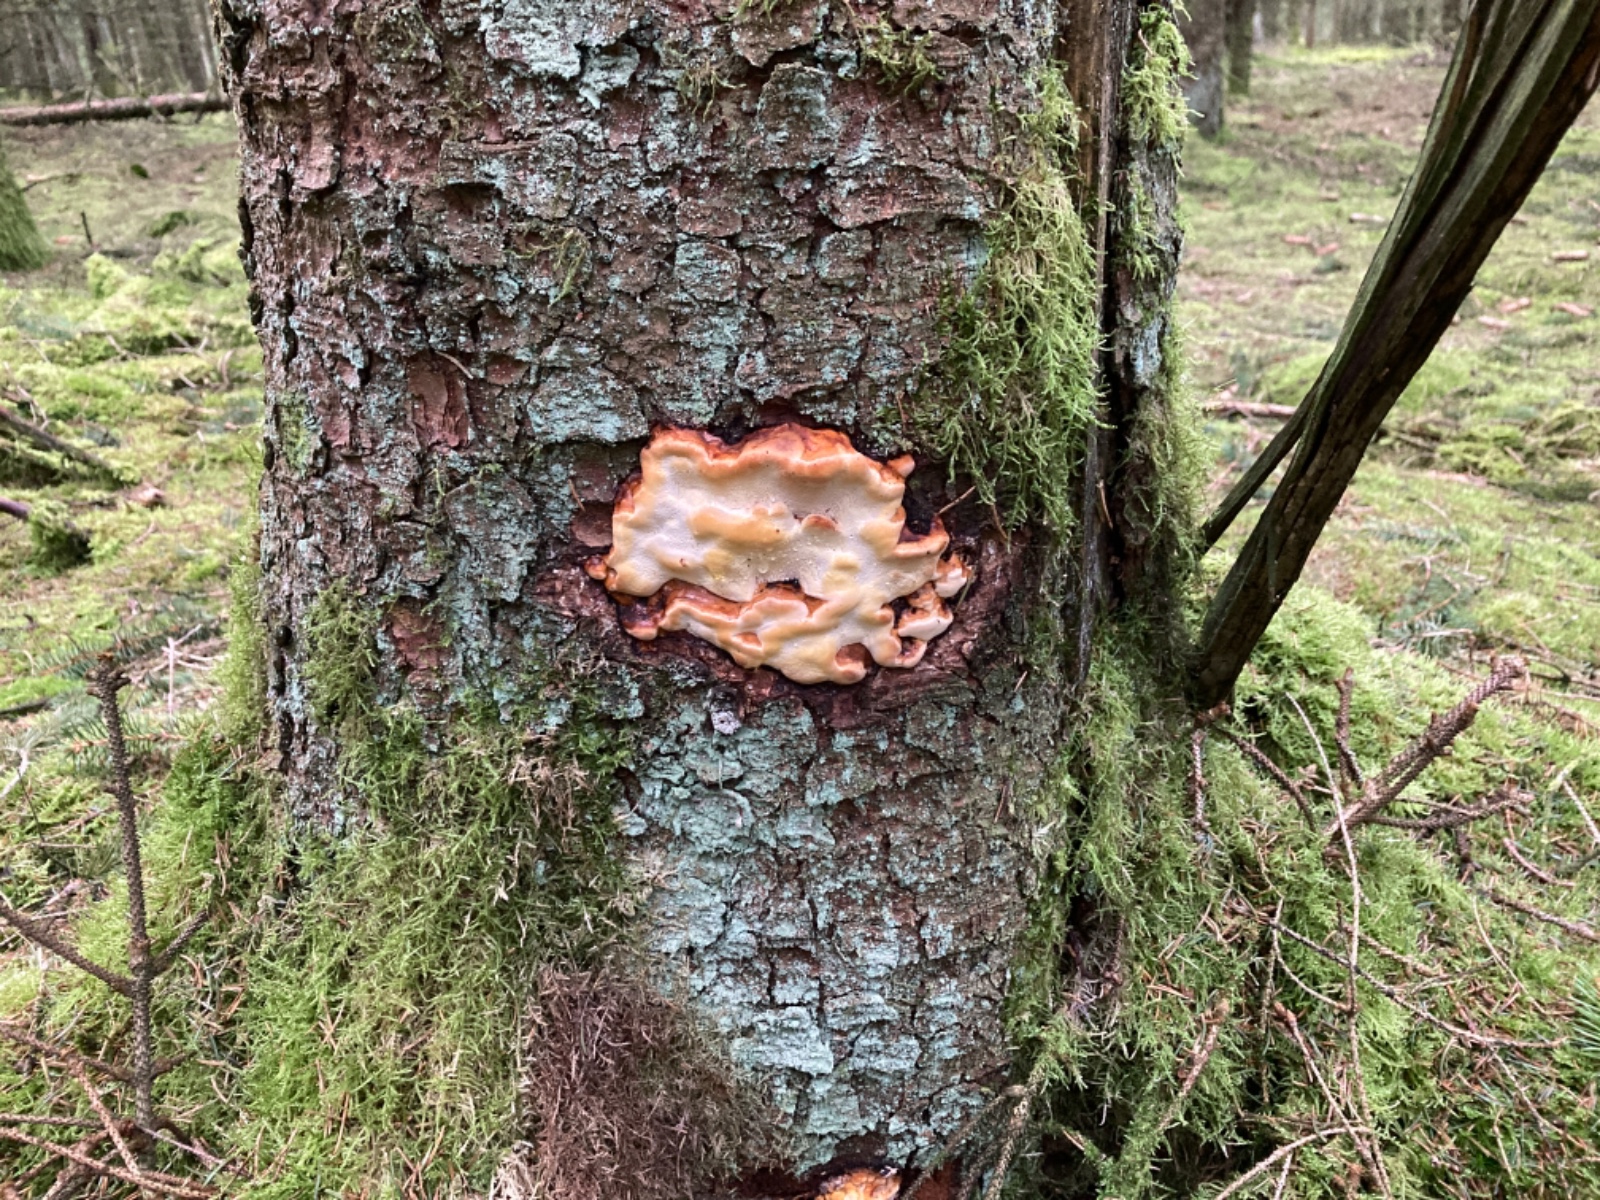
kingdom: Fungi
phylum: Basidiomycota
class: Agaricomycetes
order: Polyporales
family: Fomitopsidaceae
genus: Fomitopsis
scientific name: Fomitopsis pinicola
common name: randbæltet hovporesvamp
